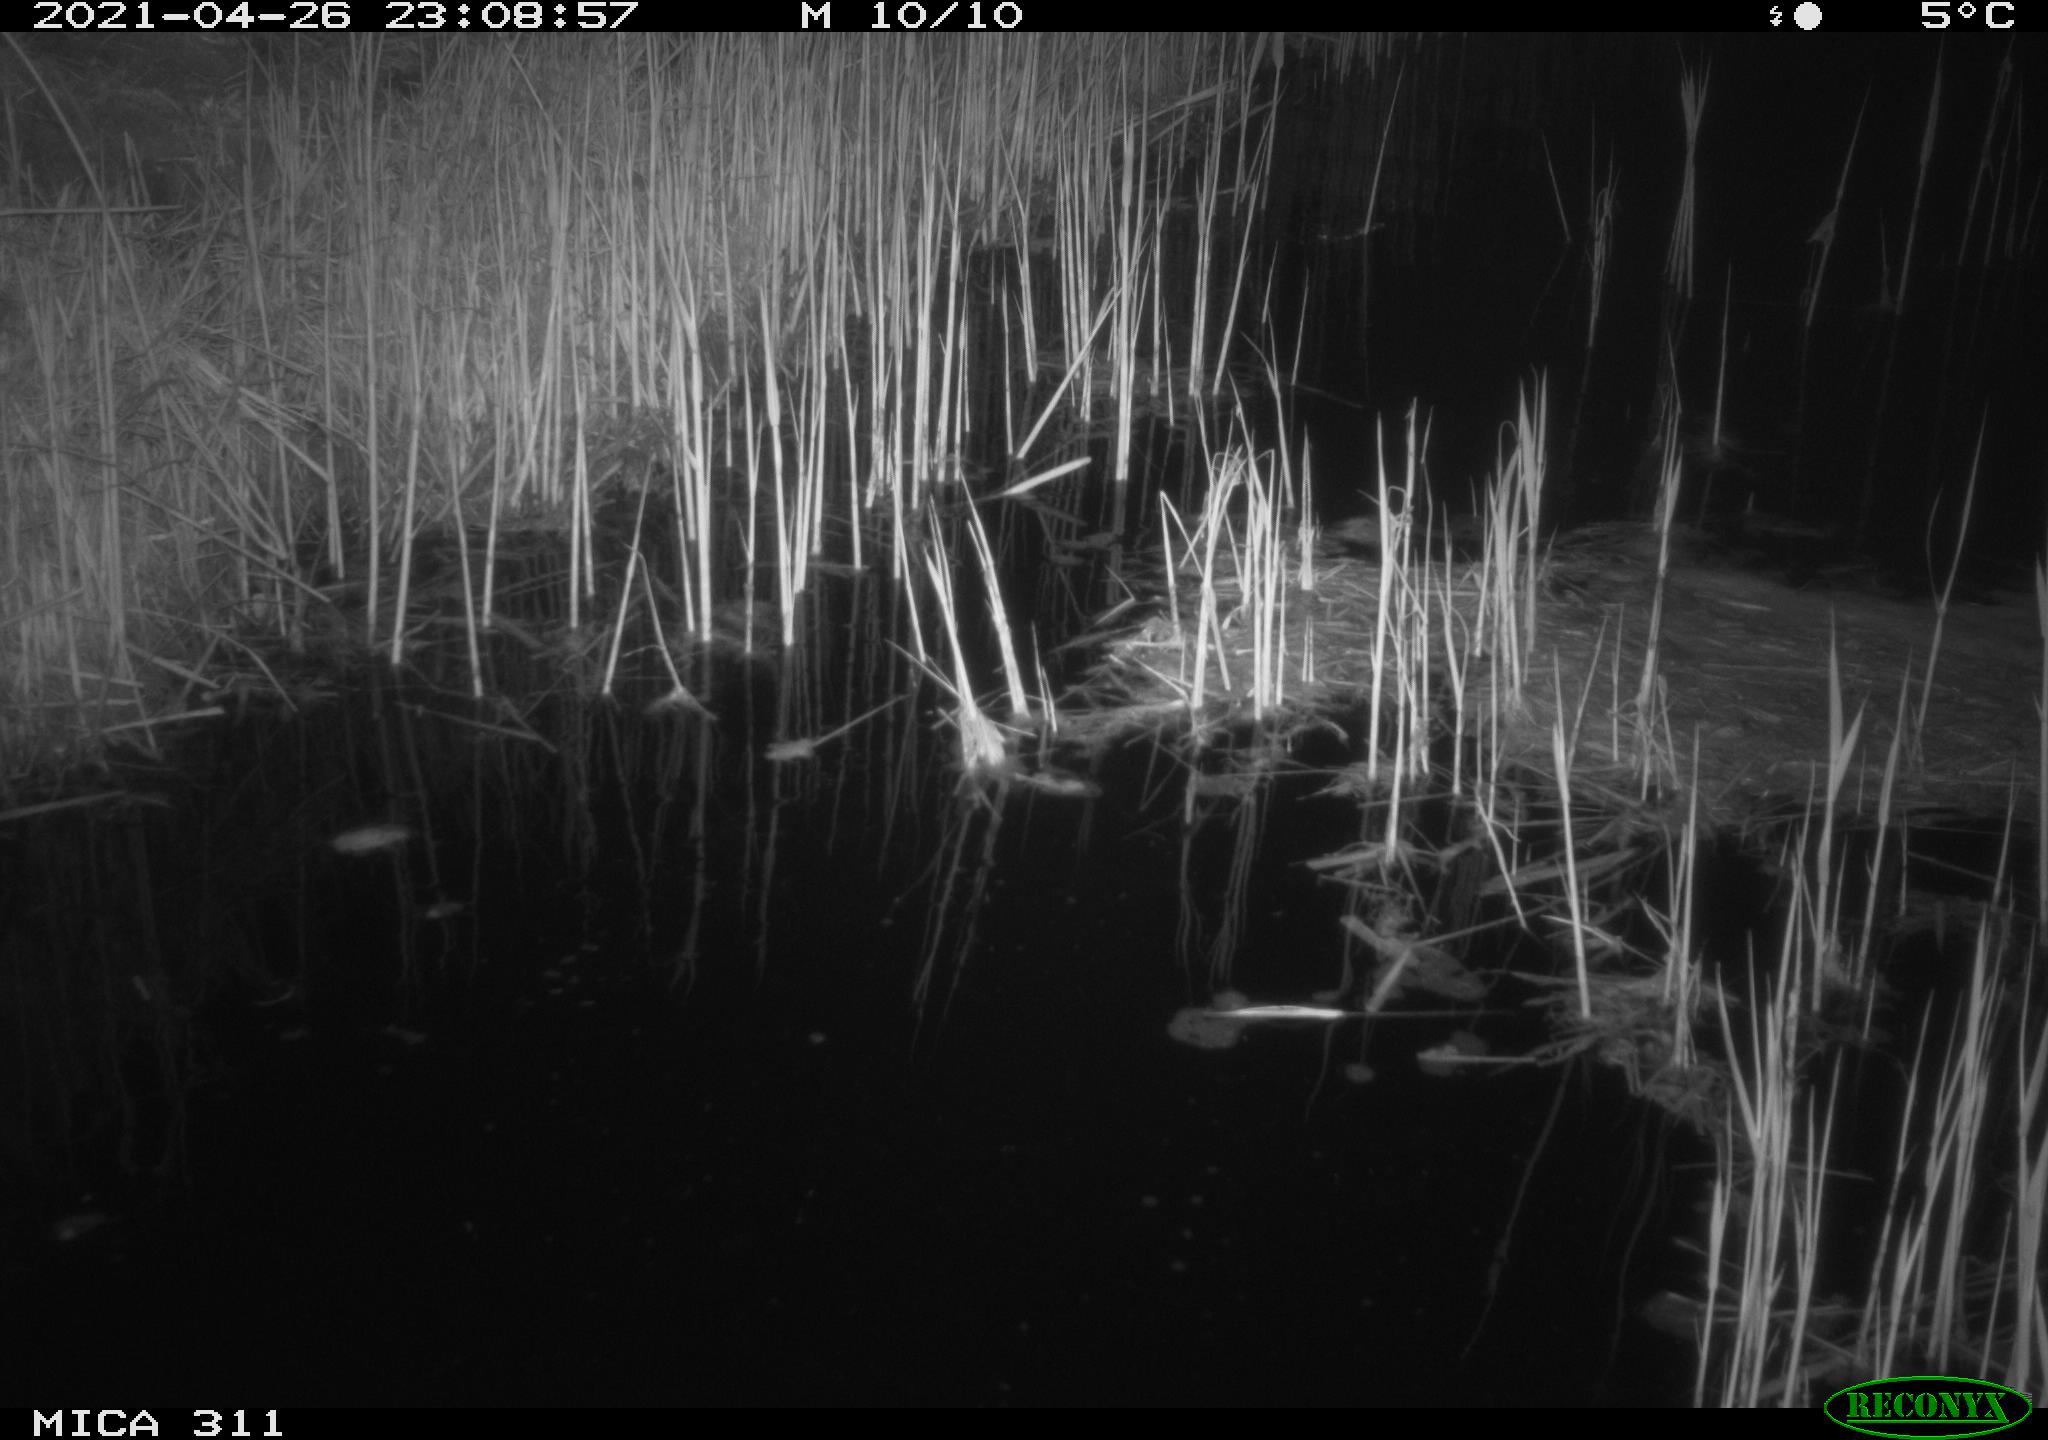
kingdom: Animalia
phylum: Chordata
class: Mammalia
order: Rodentia
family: Cricetidae
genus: Ondatra
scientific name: Ondatra zibethicus
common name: Muskrat
